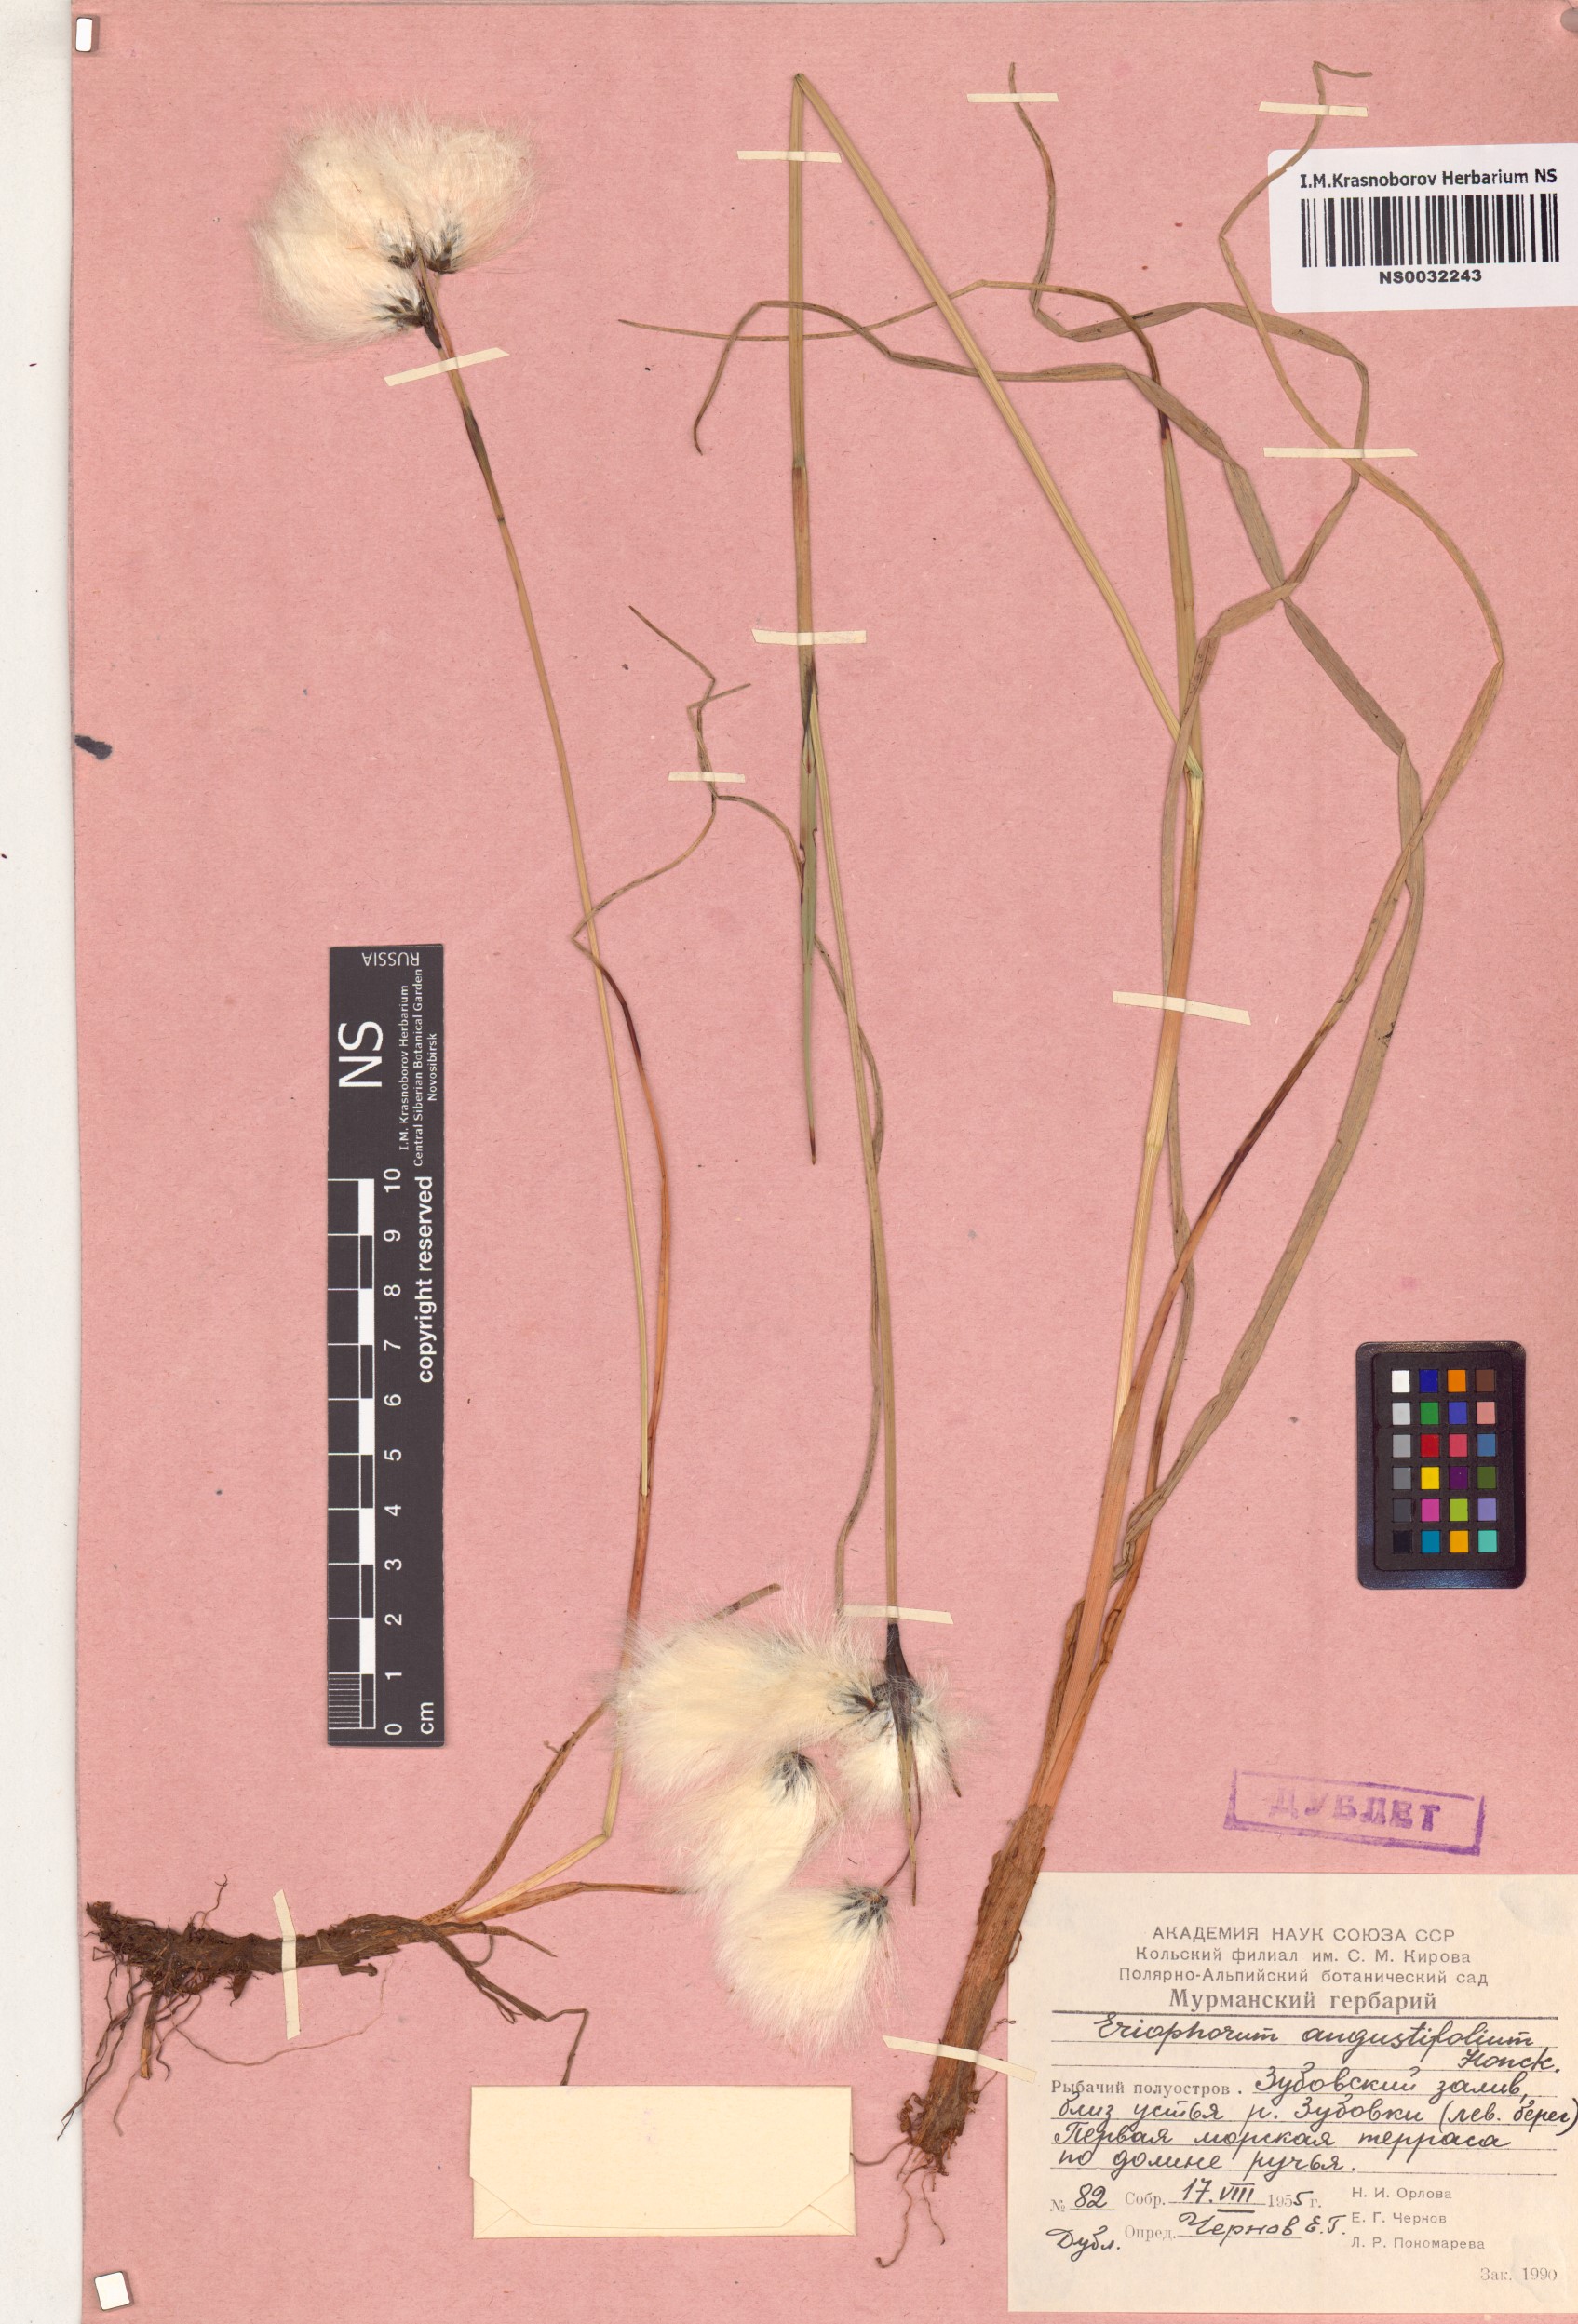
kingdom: Plantae
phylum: Tracheophyta
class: Liliopsida
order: Poales
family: Cyperaceae
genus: Eriophorum
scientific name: Eriophorum angustifolium
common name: Common cottongrass
